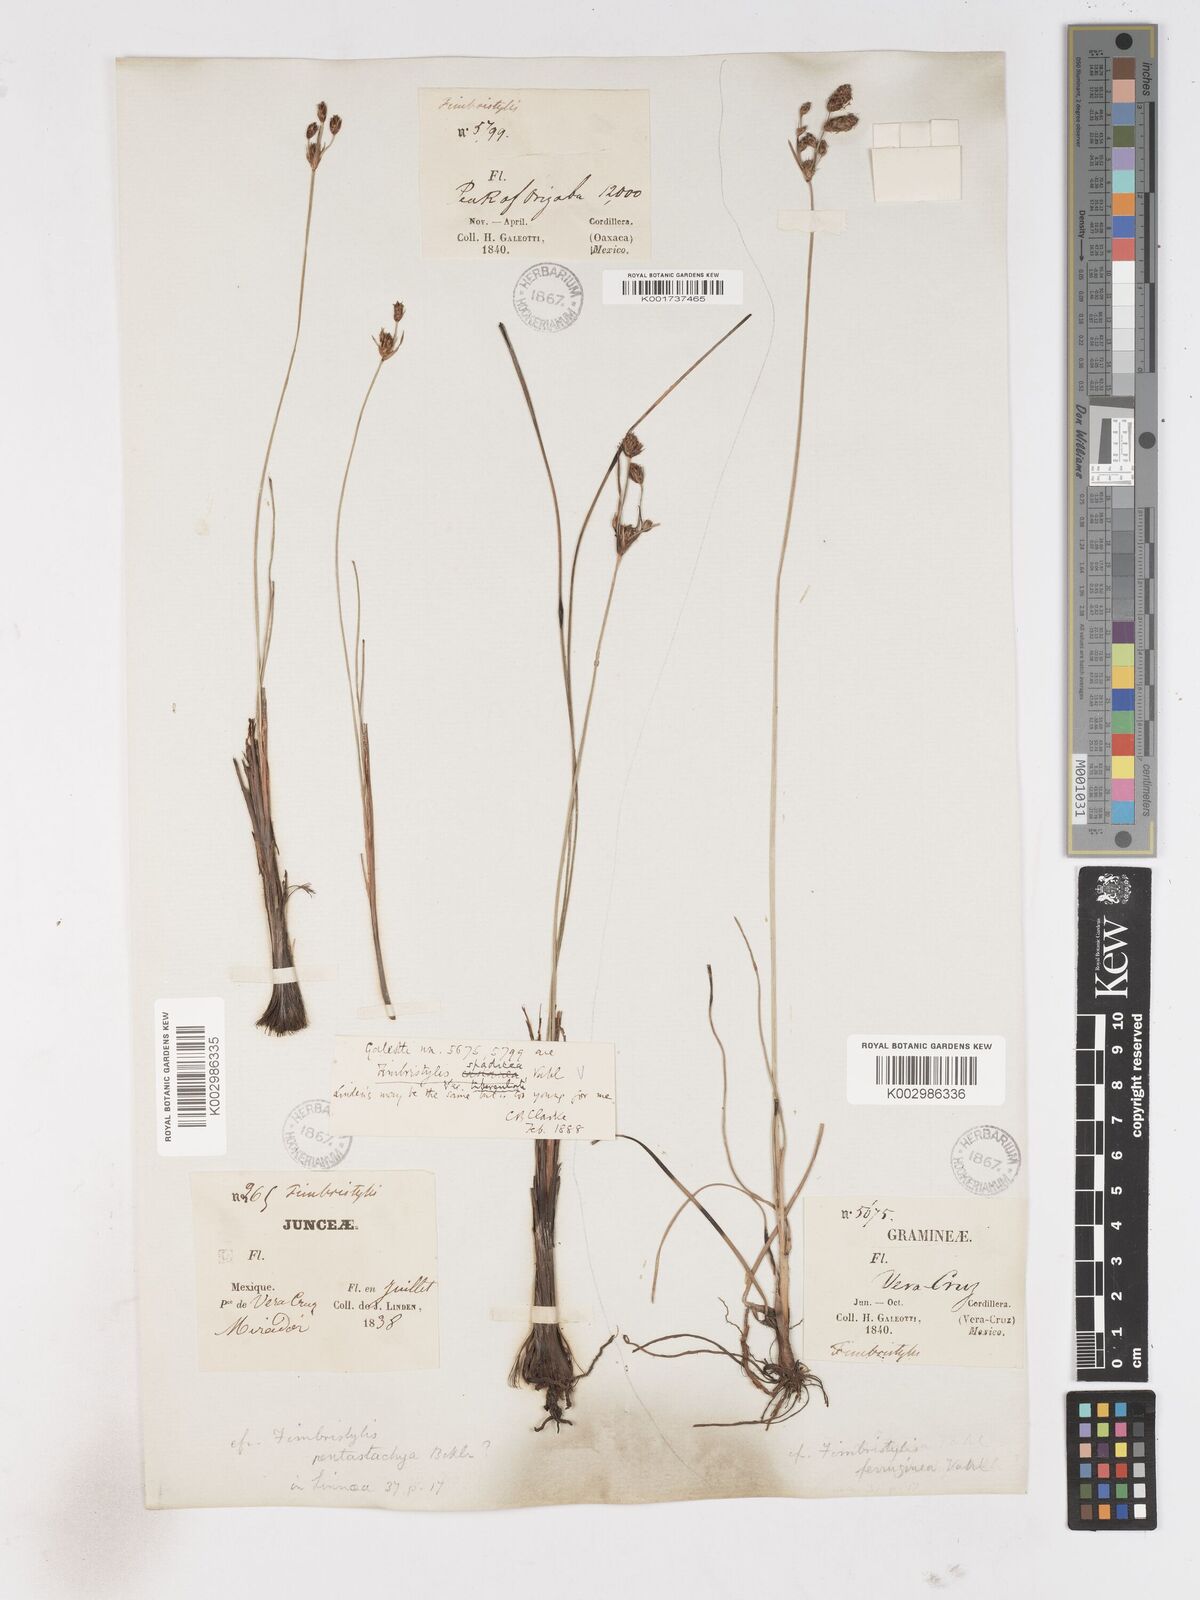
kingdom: Plantae
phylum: Tracheophyta
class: Liliopsida
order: Poales
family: Cyperaceae
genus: Fimbristylis
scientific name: Fimbristylis spadicea
